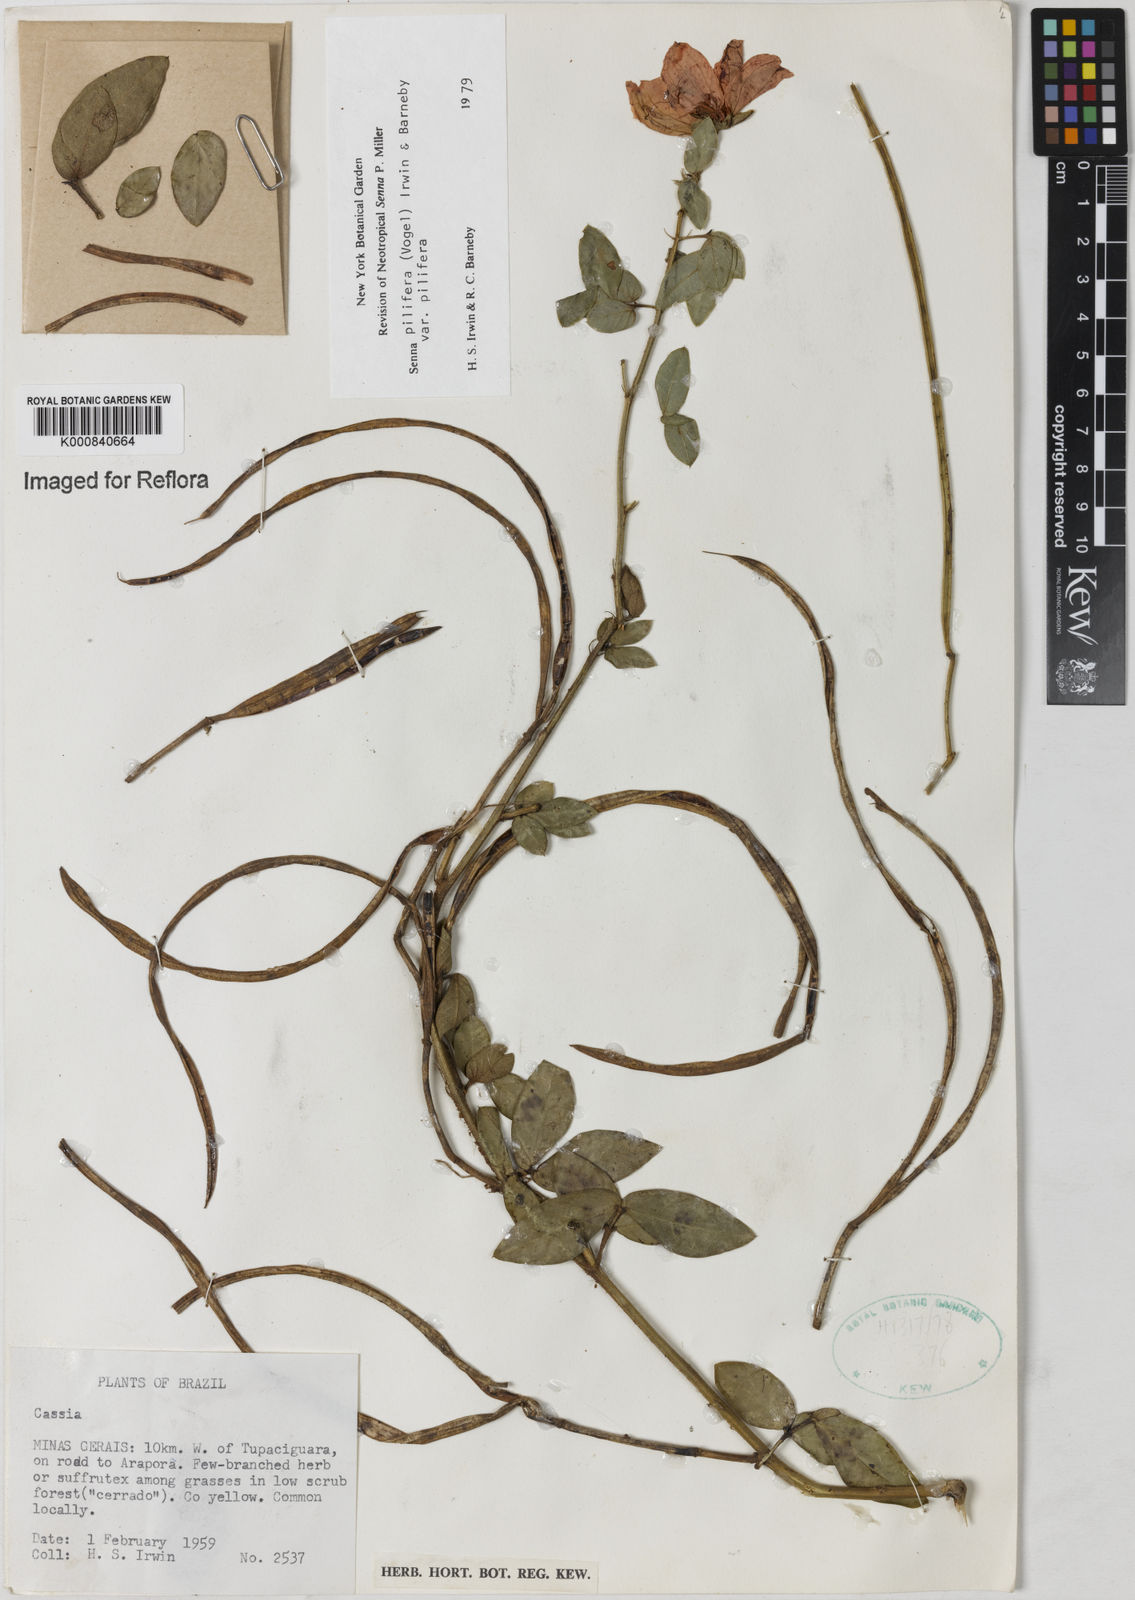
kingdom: Plantae
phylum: Tracheophyta
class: Magnoliopsida
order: Fabales
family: Fabaceae
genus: Senna
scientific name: Senna pilifera
